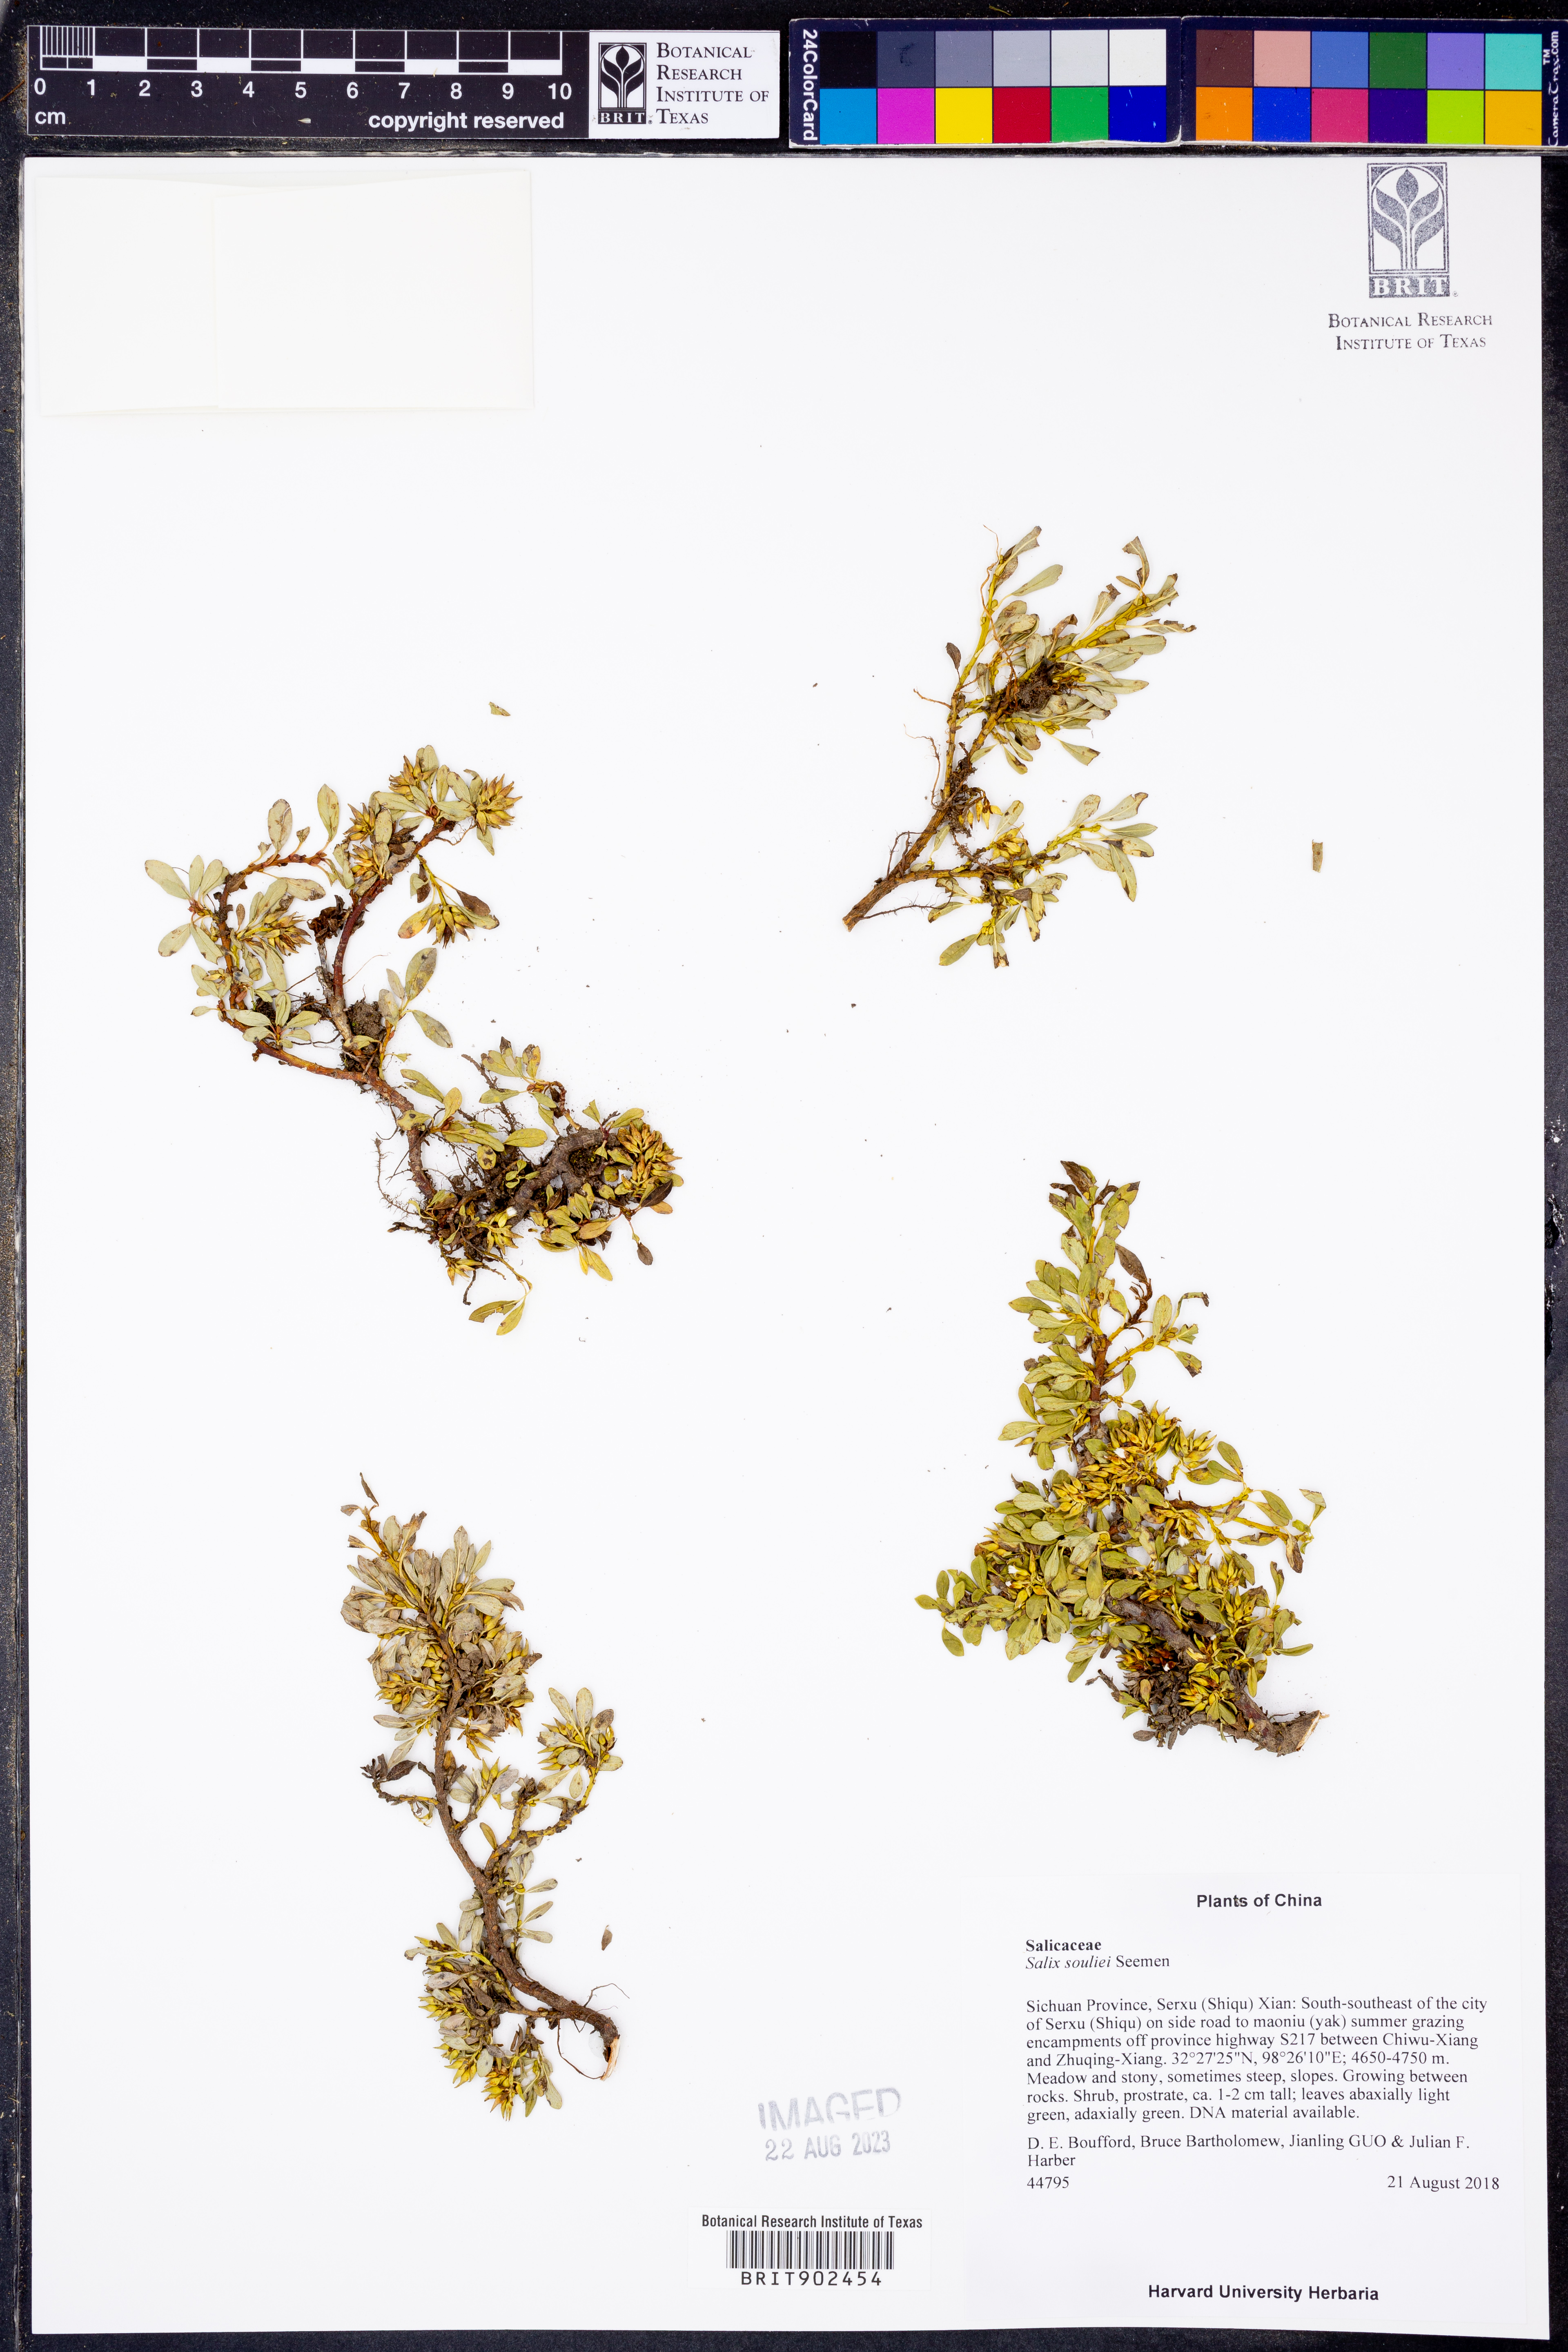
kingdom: Plantae
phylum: Tracheophyta
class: Magnoliopsida
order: Malpighiales
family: Salicaceae
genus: Salix
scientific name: Salix
